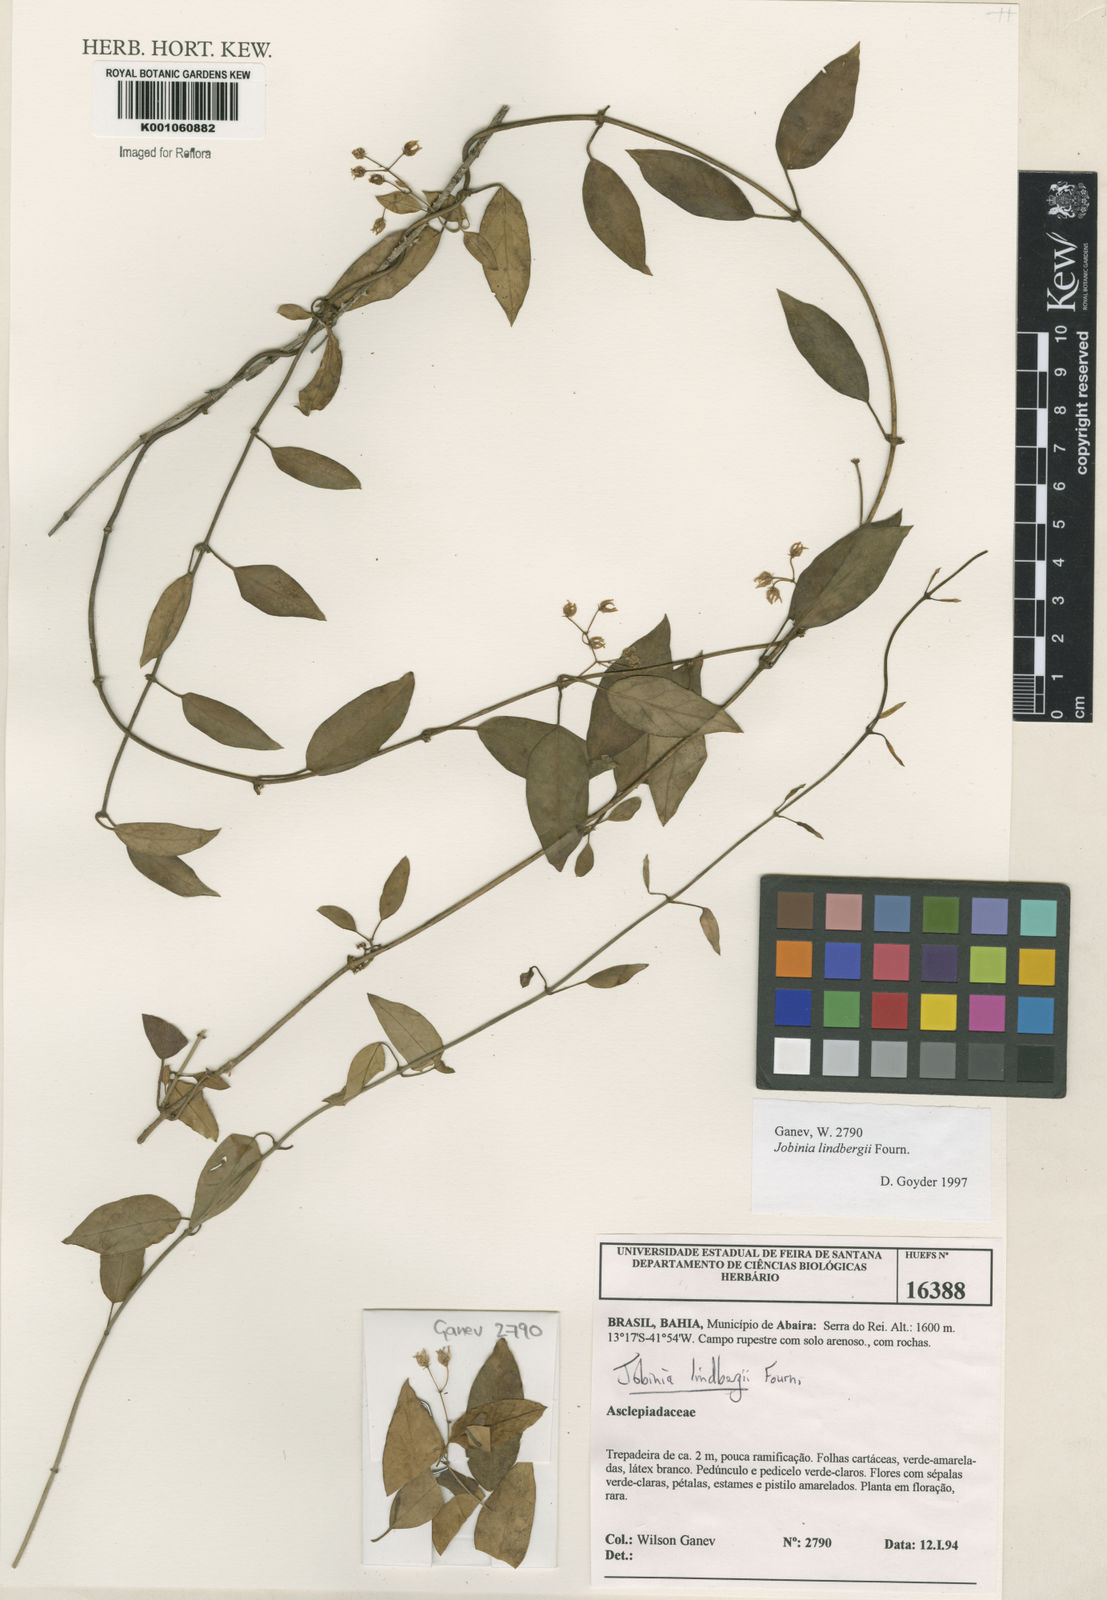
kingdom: Plantae
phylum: Tracheophyta
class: Magnoliopsida
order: Gentianales
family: Apocynaceae
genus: Jobinia
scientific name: Jobinia lindbergii
